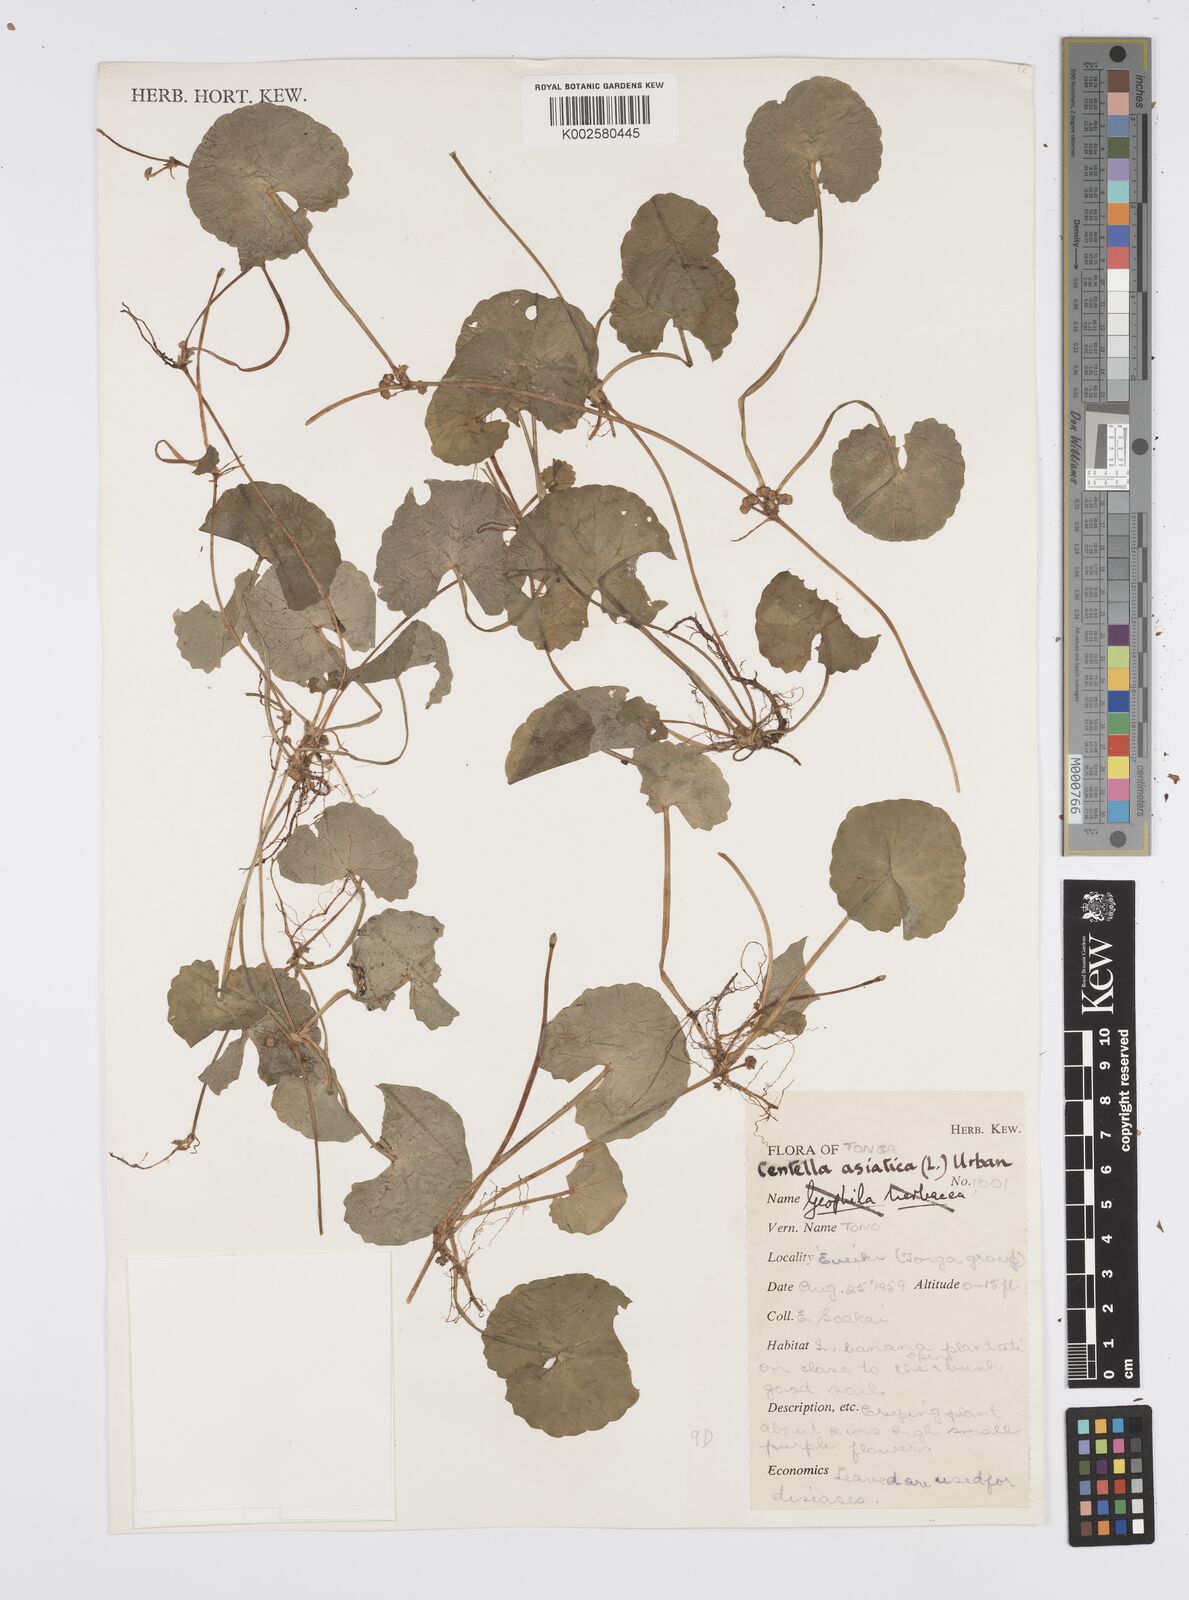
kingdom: Plantae
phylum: Tracheophyta
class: Magnoliopsida
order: Apiales
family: Apiaceae
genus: Centella
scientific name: Centella asiatica
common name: Spadeleaf
